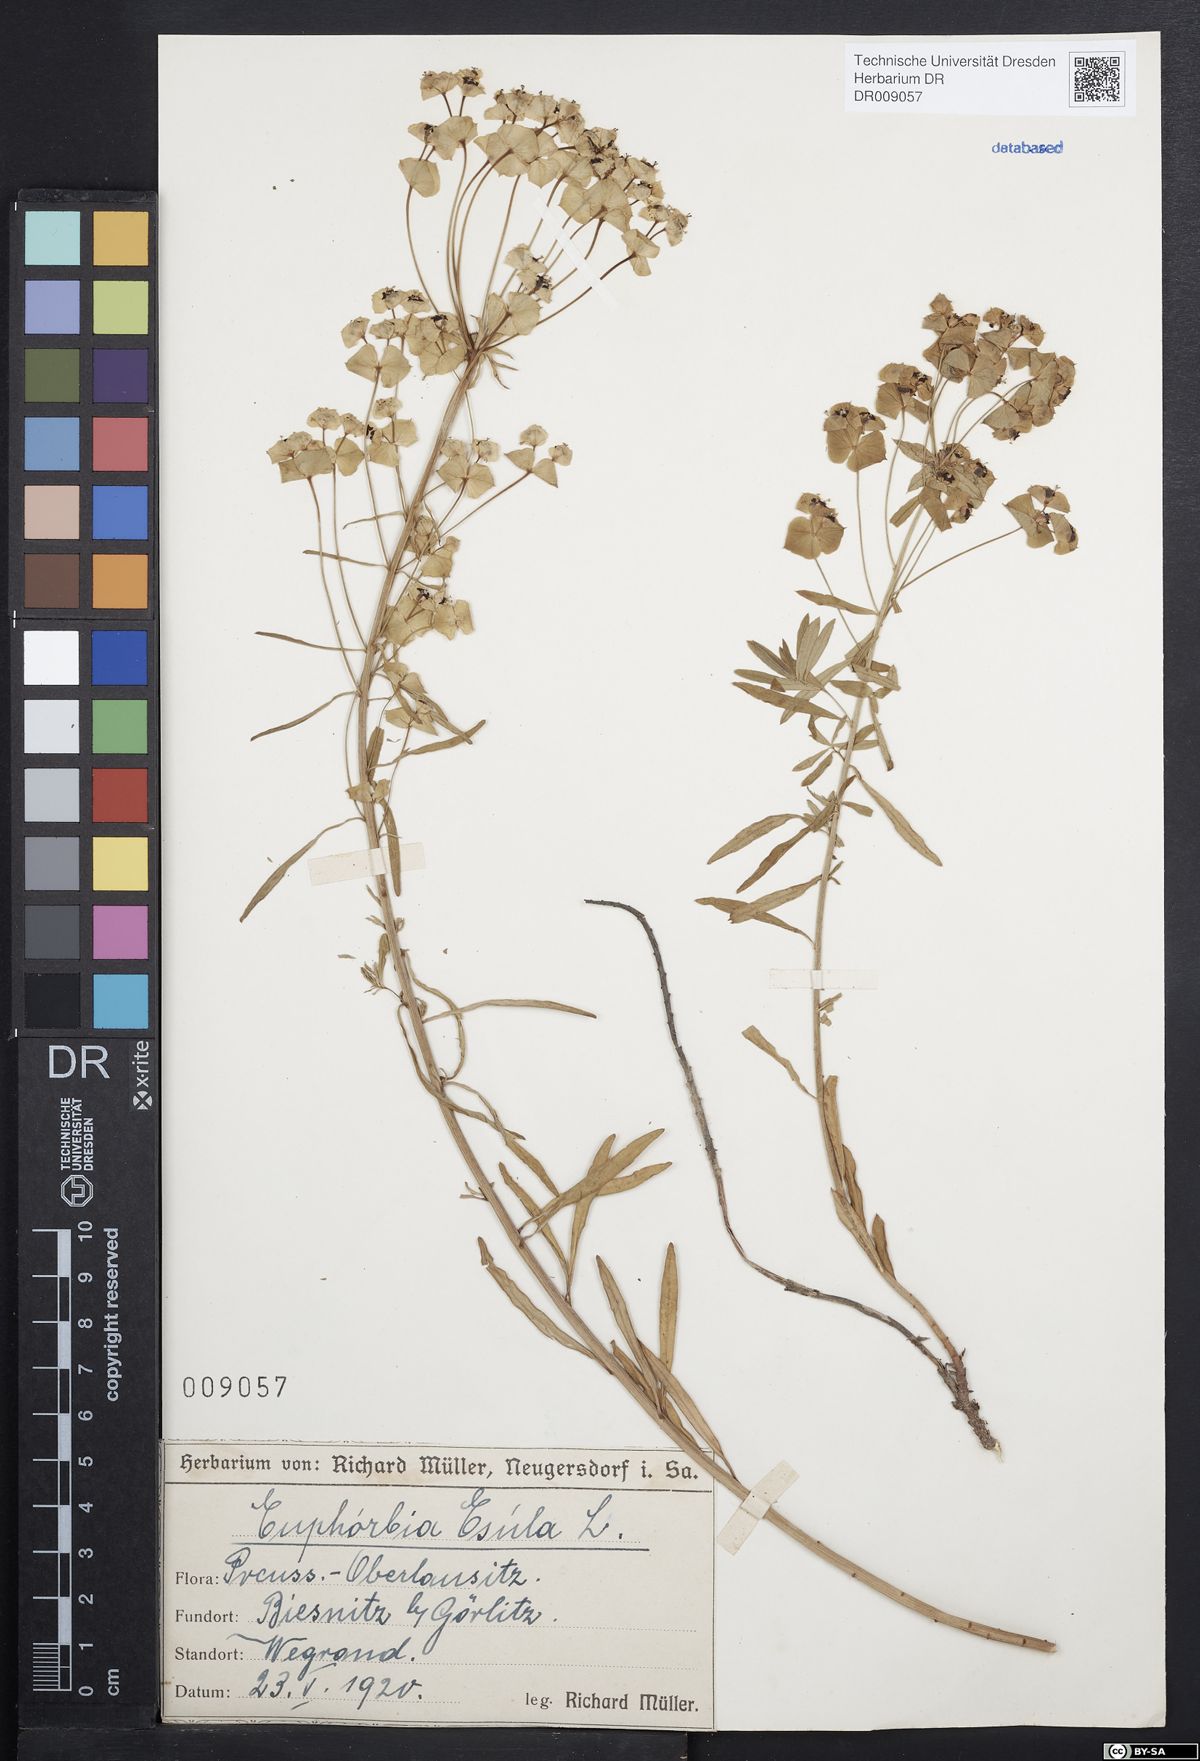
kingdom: Plantae
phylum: Tracheophyta
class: Magnoliopsida
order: Malpighiales
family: Euphorbiaceae
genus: Euphorbia
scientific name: Euphorbia esula
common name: Leafy spurge
